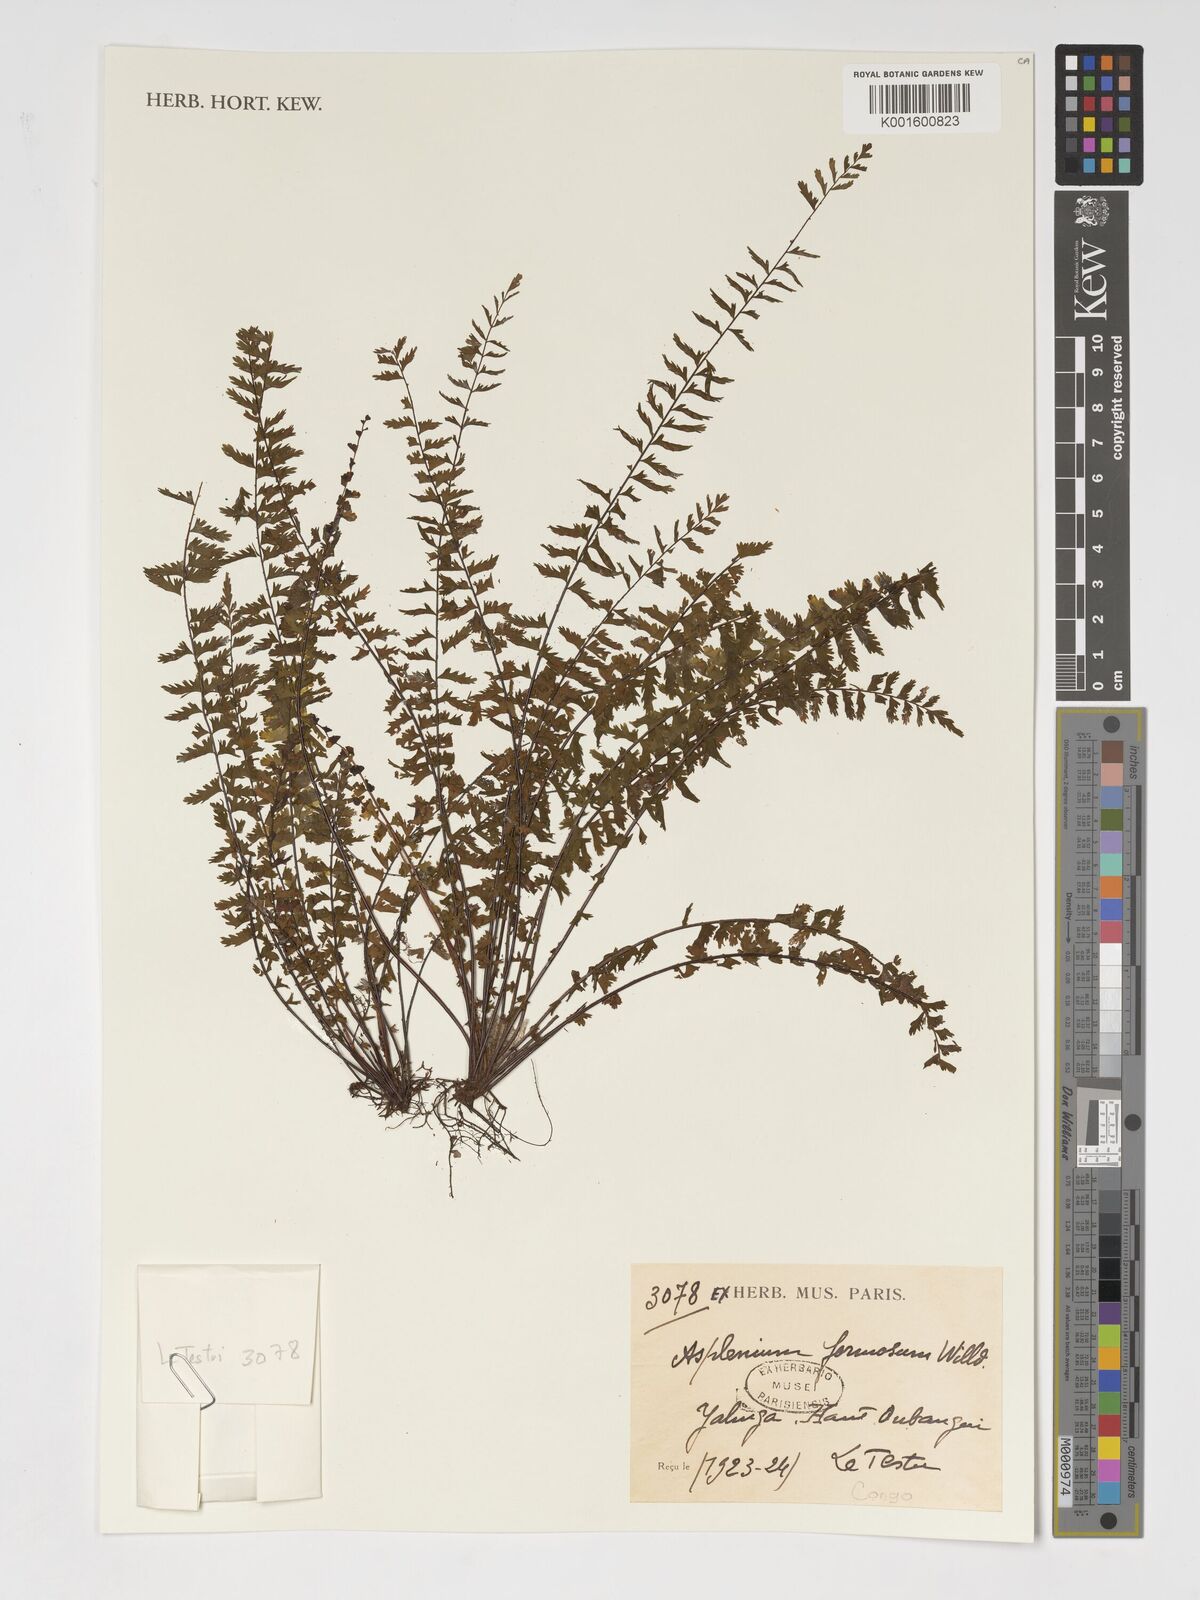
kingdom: Plantae
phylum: Tracheophyta
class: Polypodiopsida
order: Polypodiales
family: Aspleniaceae
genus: Asplenium
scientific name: Asplenium formosum
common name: Showy spleenwort
